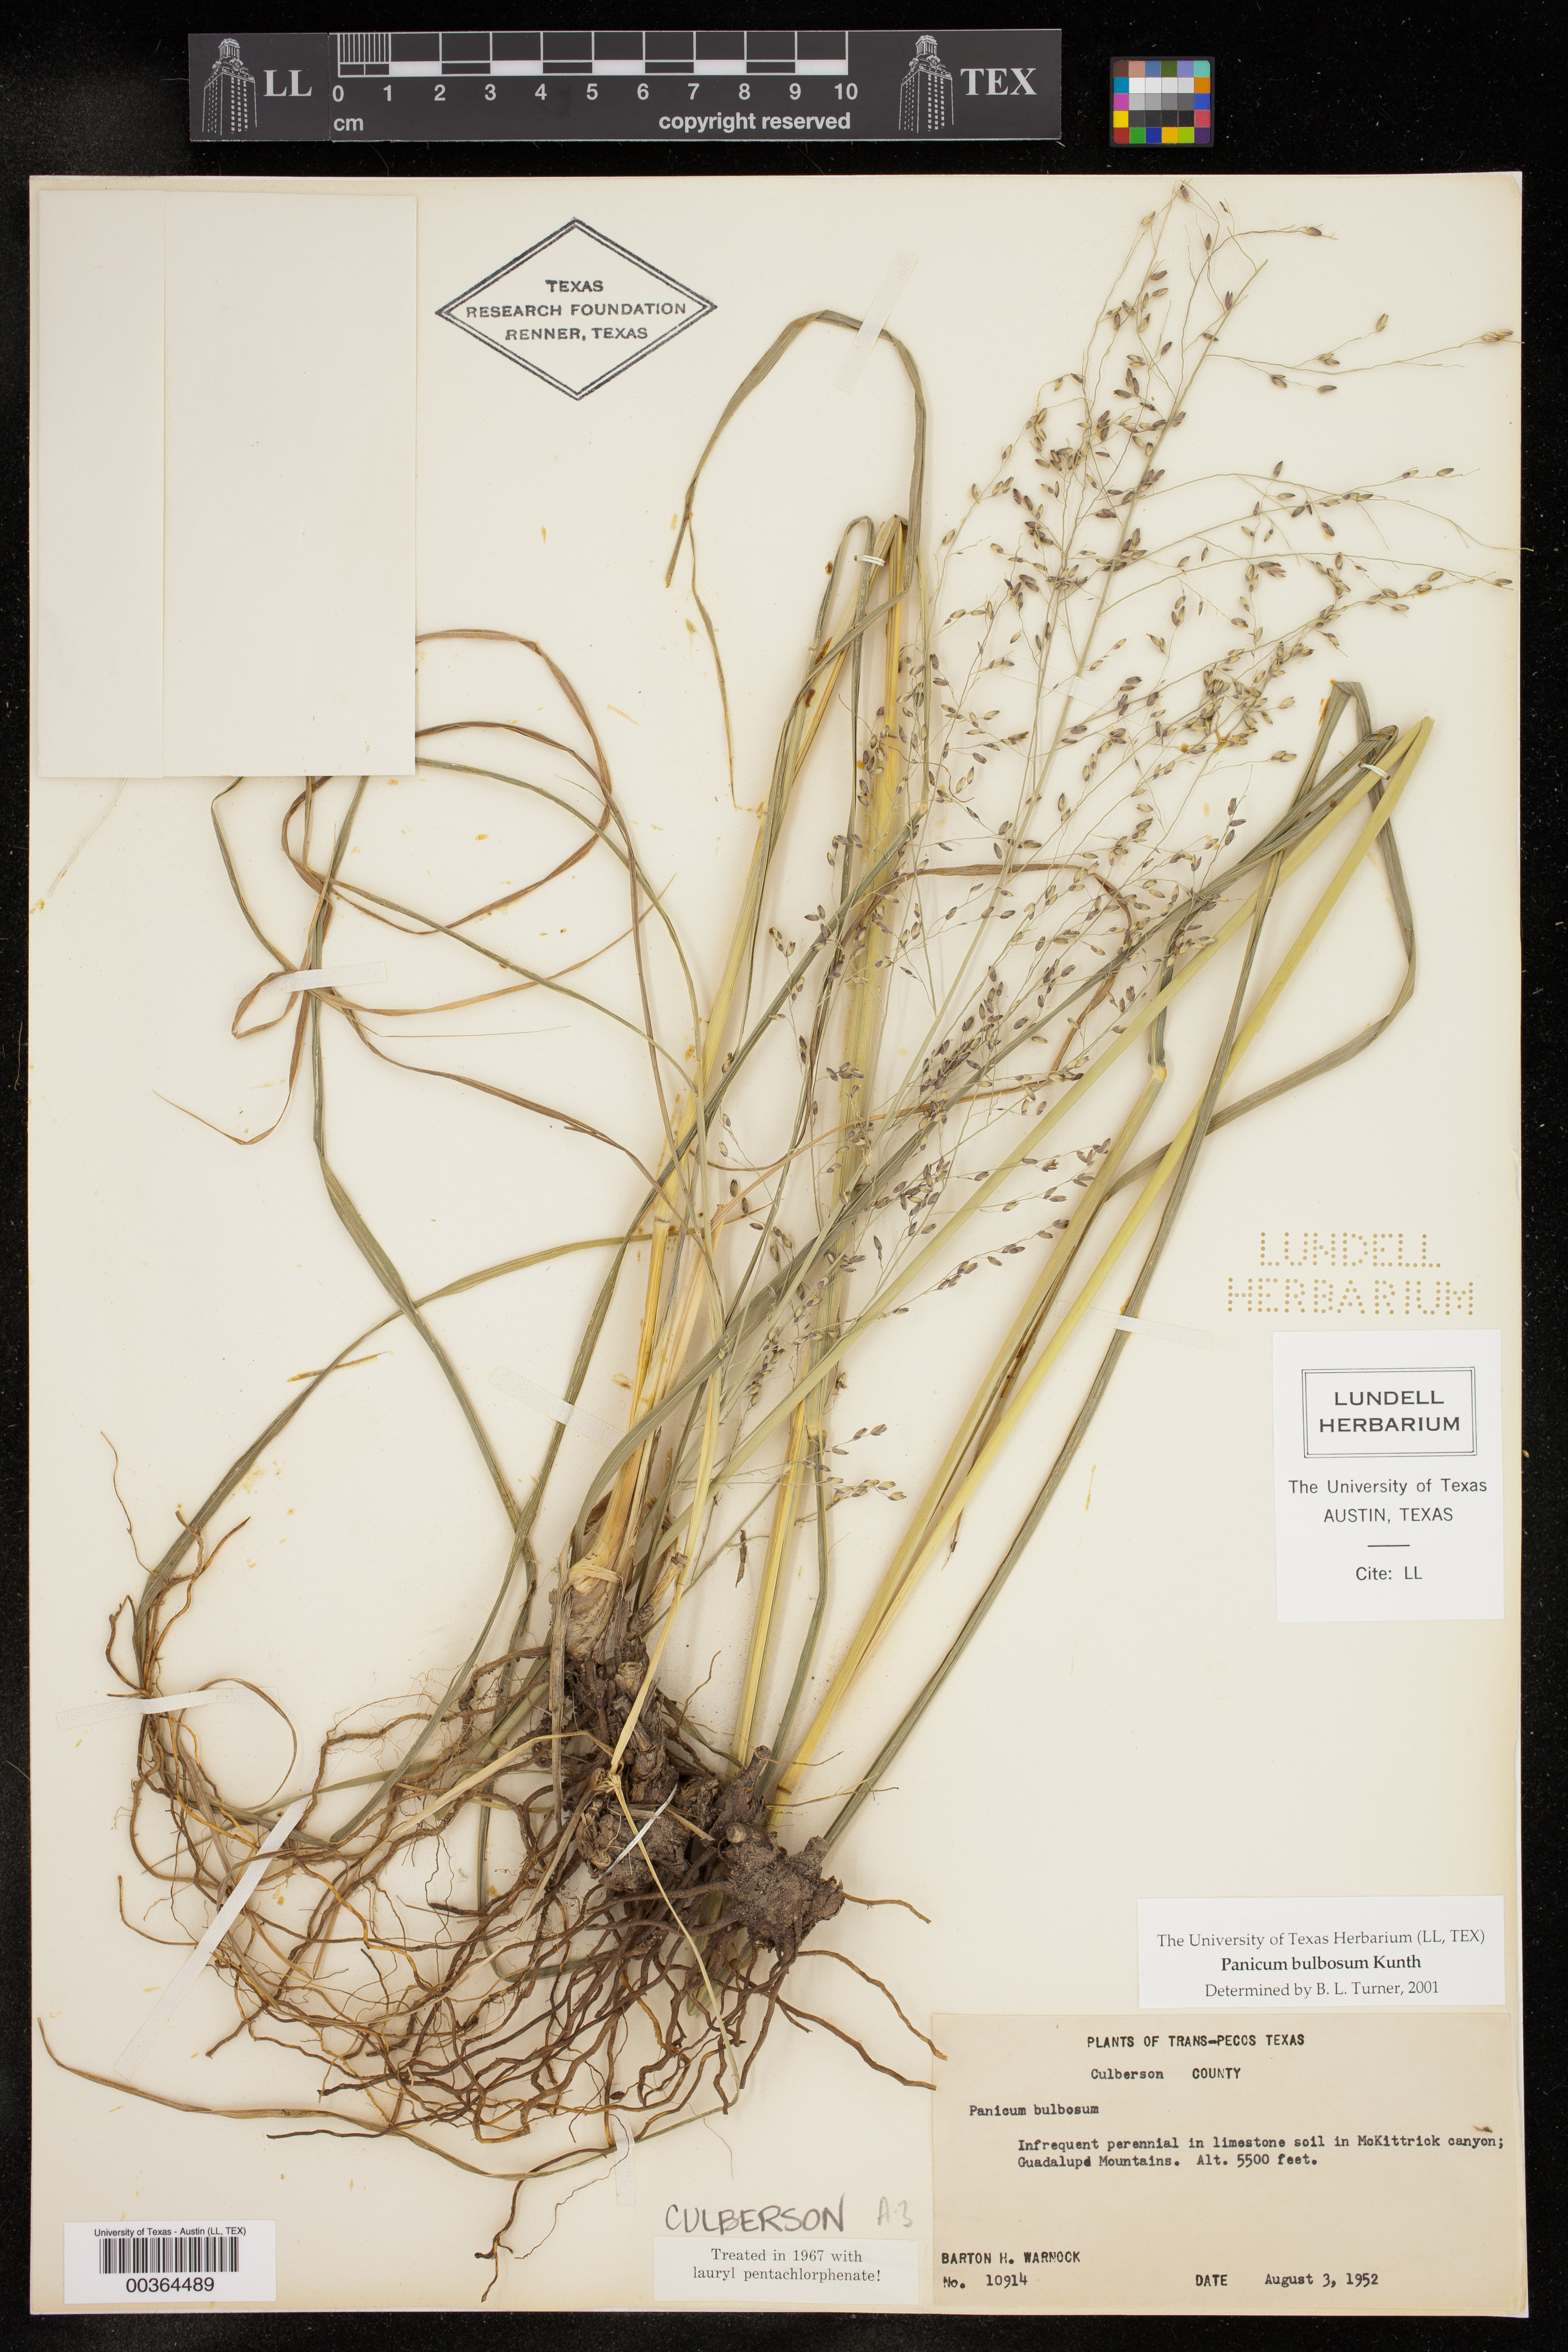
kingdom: Plantae
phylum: Tracheophyta
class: Liliopsida
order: Poales
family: Poaceae
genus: Zuloagaea
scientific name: Zuloagaea bulbosa
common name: Canyon panic grass
